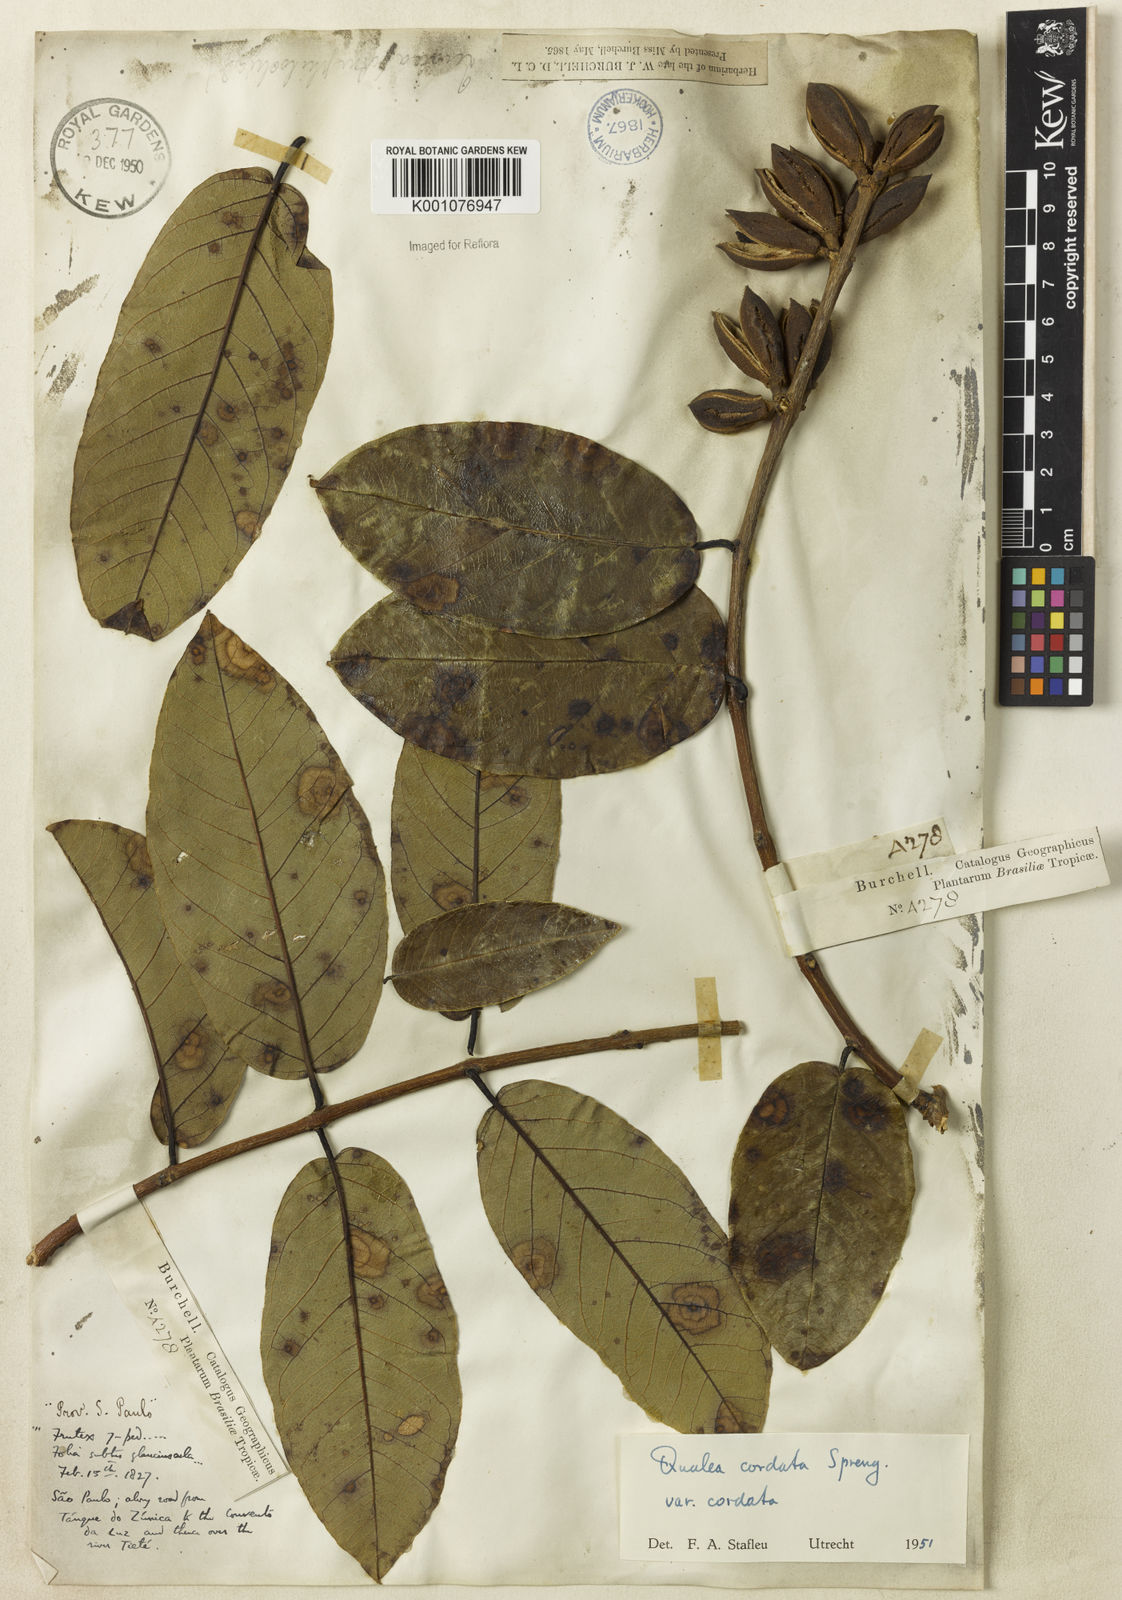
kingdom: Plantae
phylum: Tracheophyta
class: Magnoliopsida
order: Myrtales
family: Vochysiaceae
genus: Qualea
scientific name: Qualea cordata
